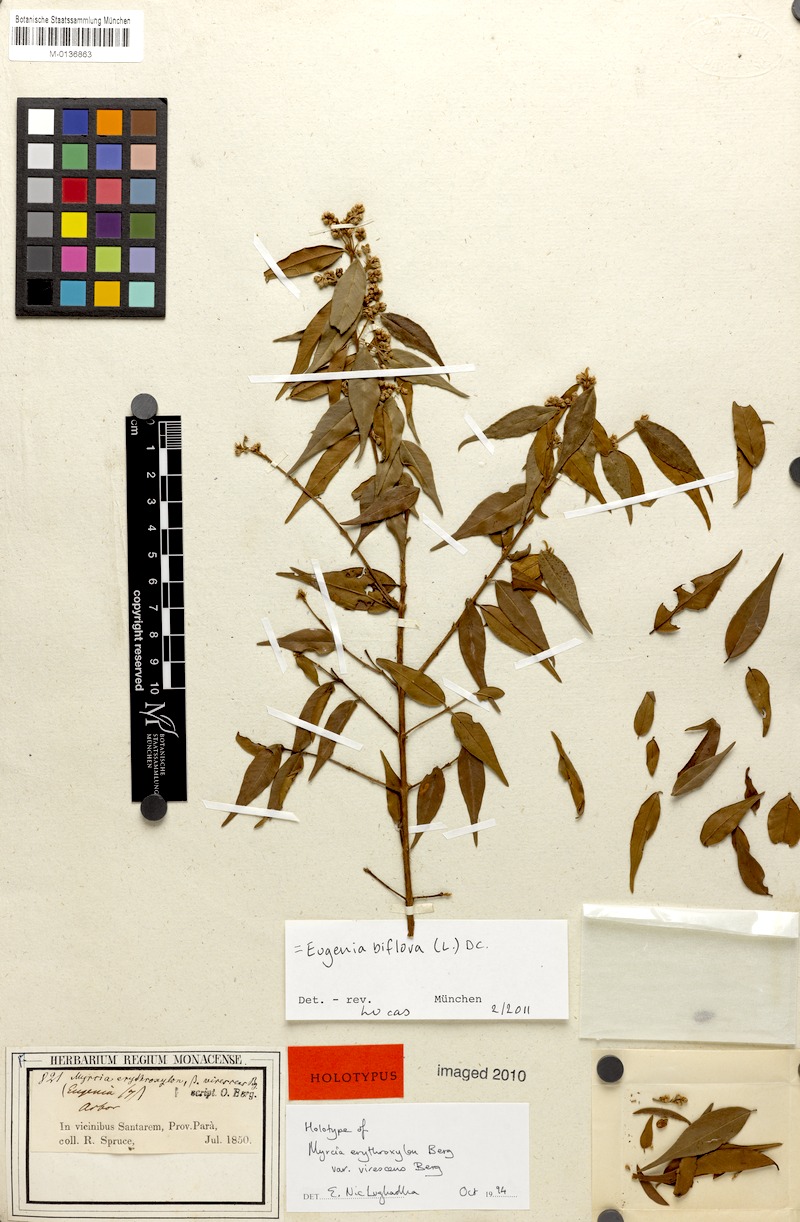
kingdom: Plantae
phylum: Tracheophyta
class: Magnoliopsida
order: Myrtales
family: Myrtaceae
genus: Eugenia
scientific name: Eugenia biflora
